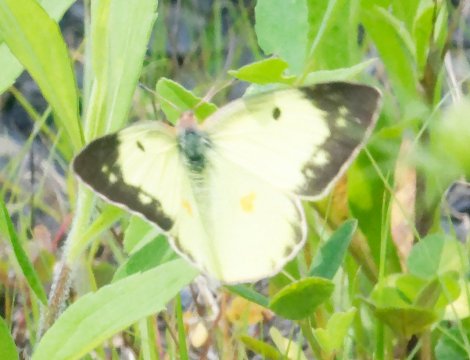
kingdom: Animalia
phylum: Arthropoda
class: Insecta
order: Lepidoptera
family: Pieridae
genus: Colias
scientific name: Colias philodice
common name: Clouded Sulphur
